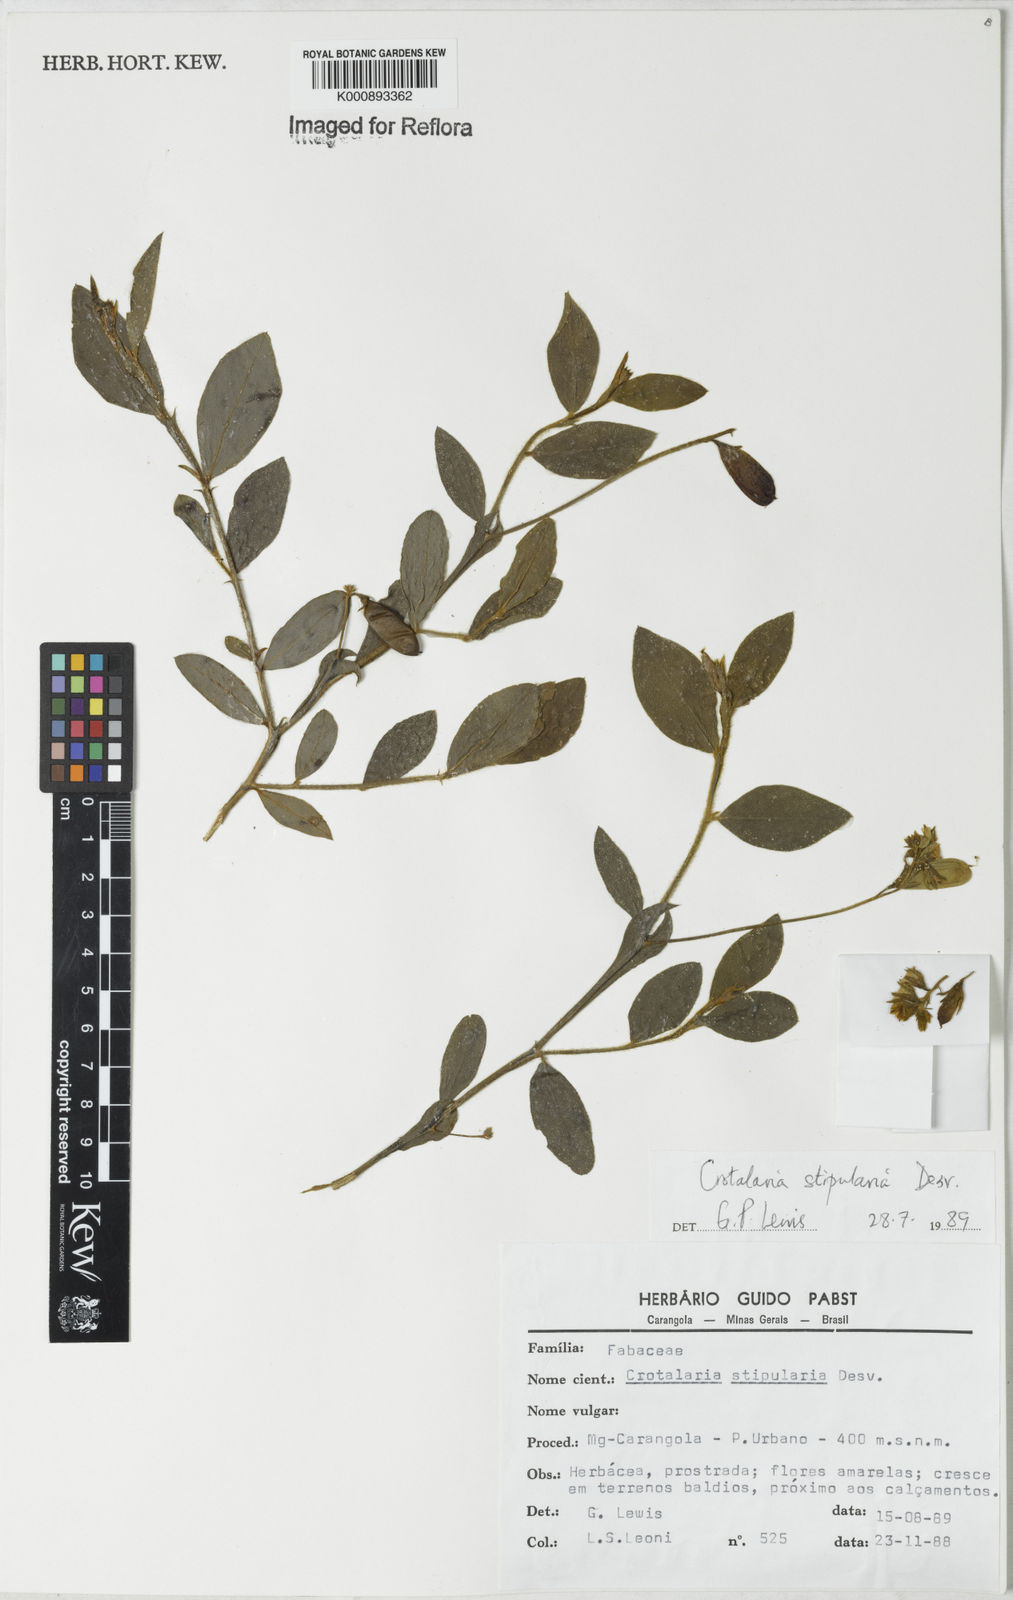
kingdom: Plantae
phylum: Tracheophyta
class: Magnoliopsida
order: Fabales
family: Fabaceae
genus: Crotalaria
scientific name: Crotalaria balansae
